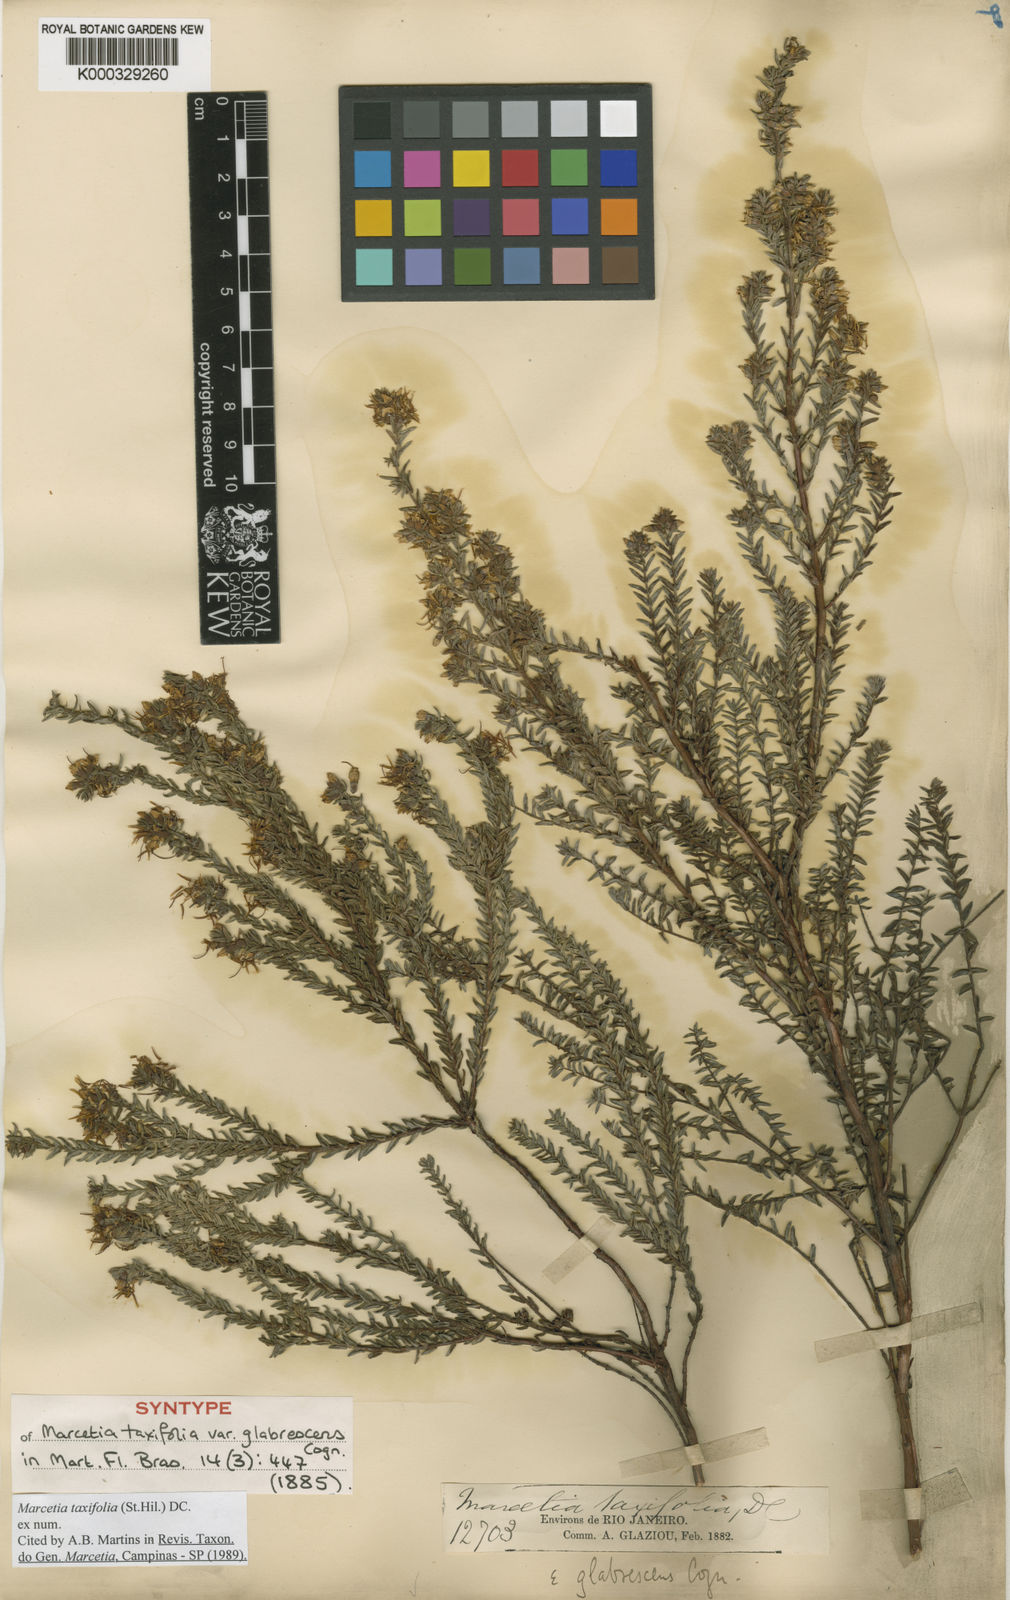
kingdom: Plantae
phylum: Tracheophyta
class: Magnoliopsida
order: Myrtales
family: Melastomataceae
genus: Marcetia
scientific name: Marcetia taxifolia
